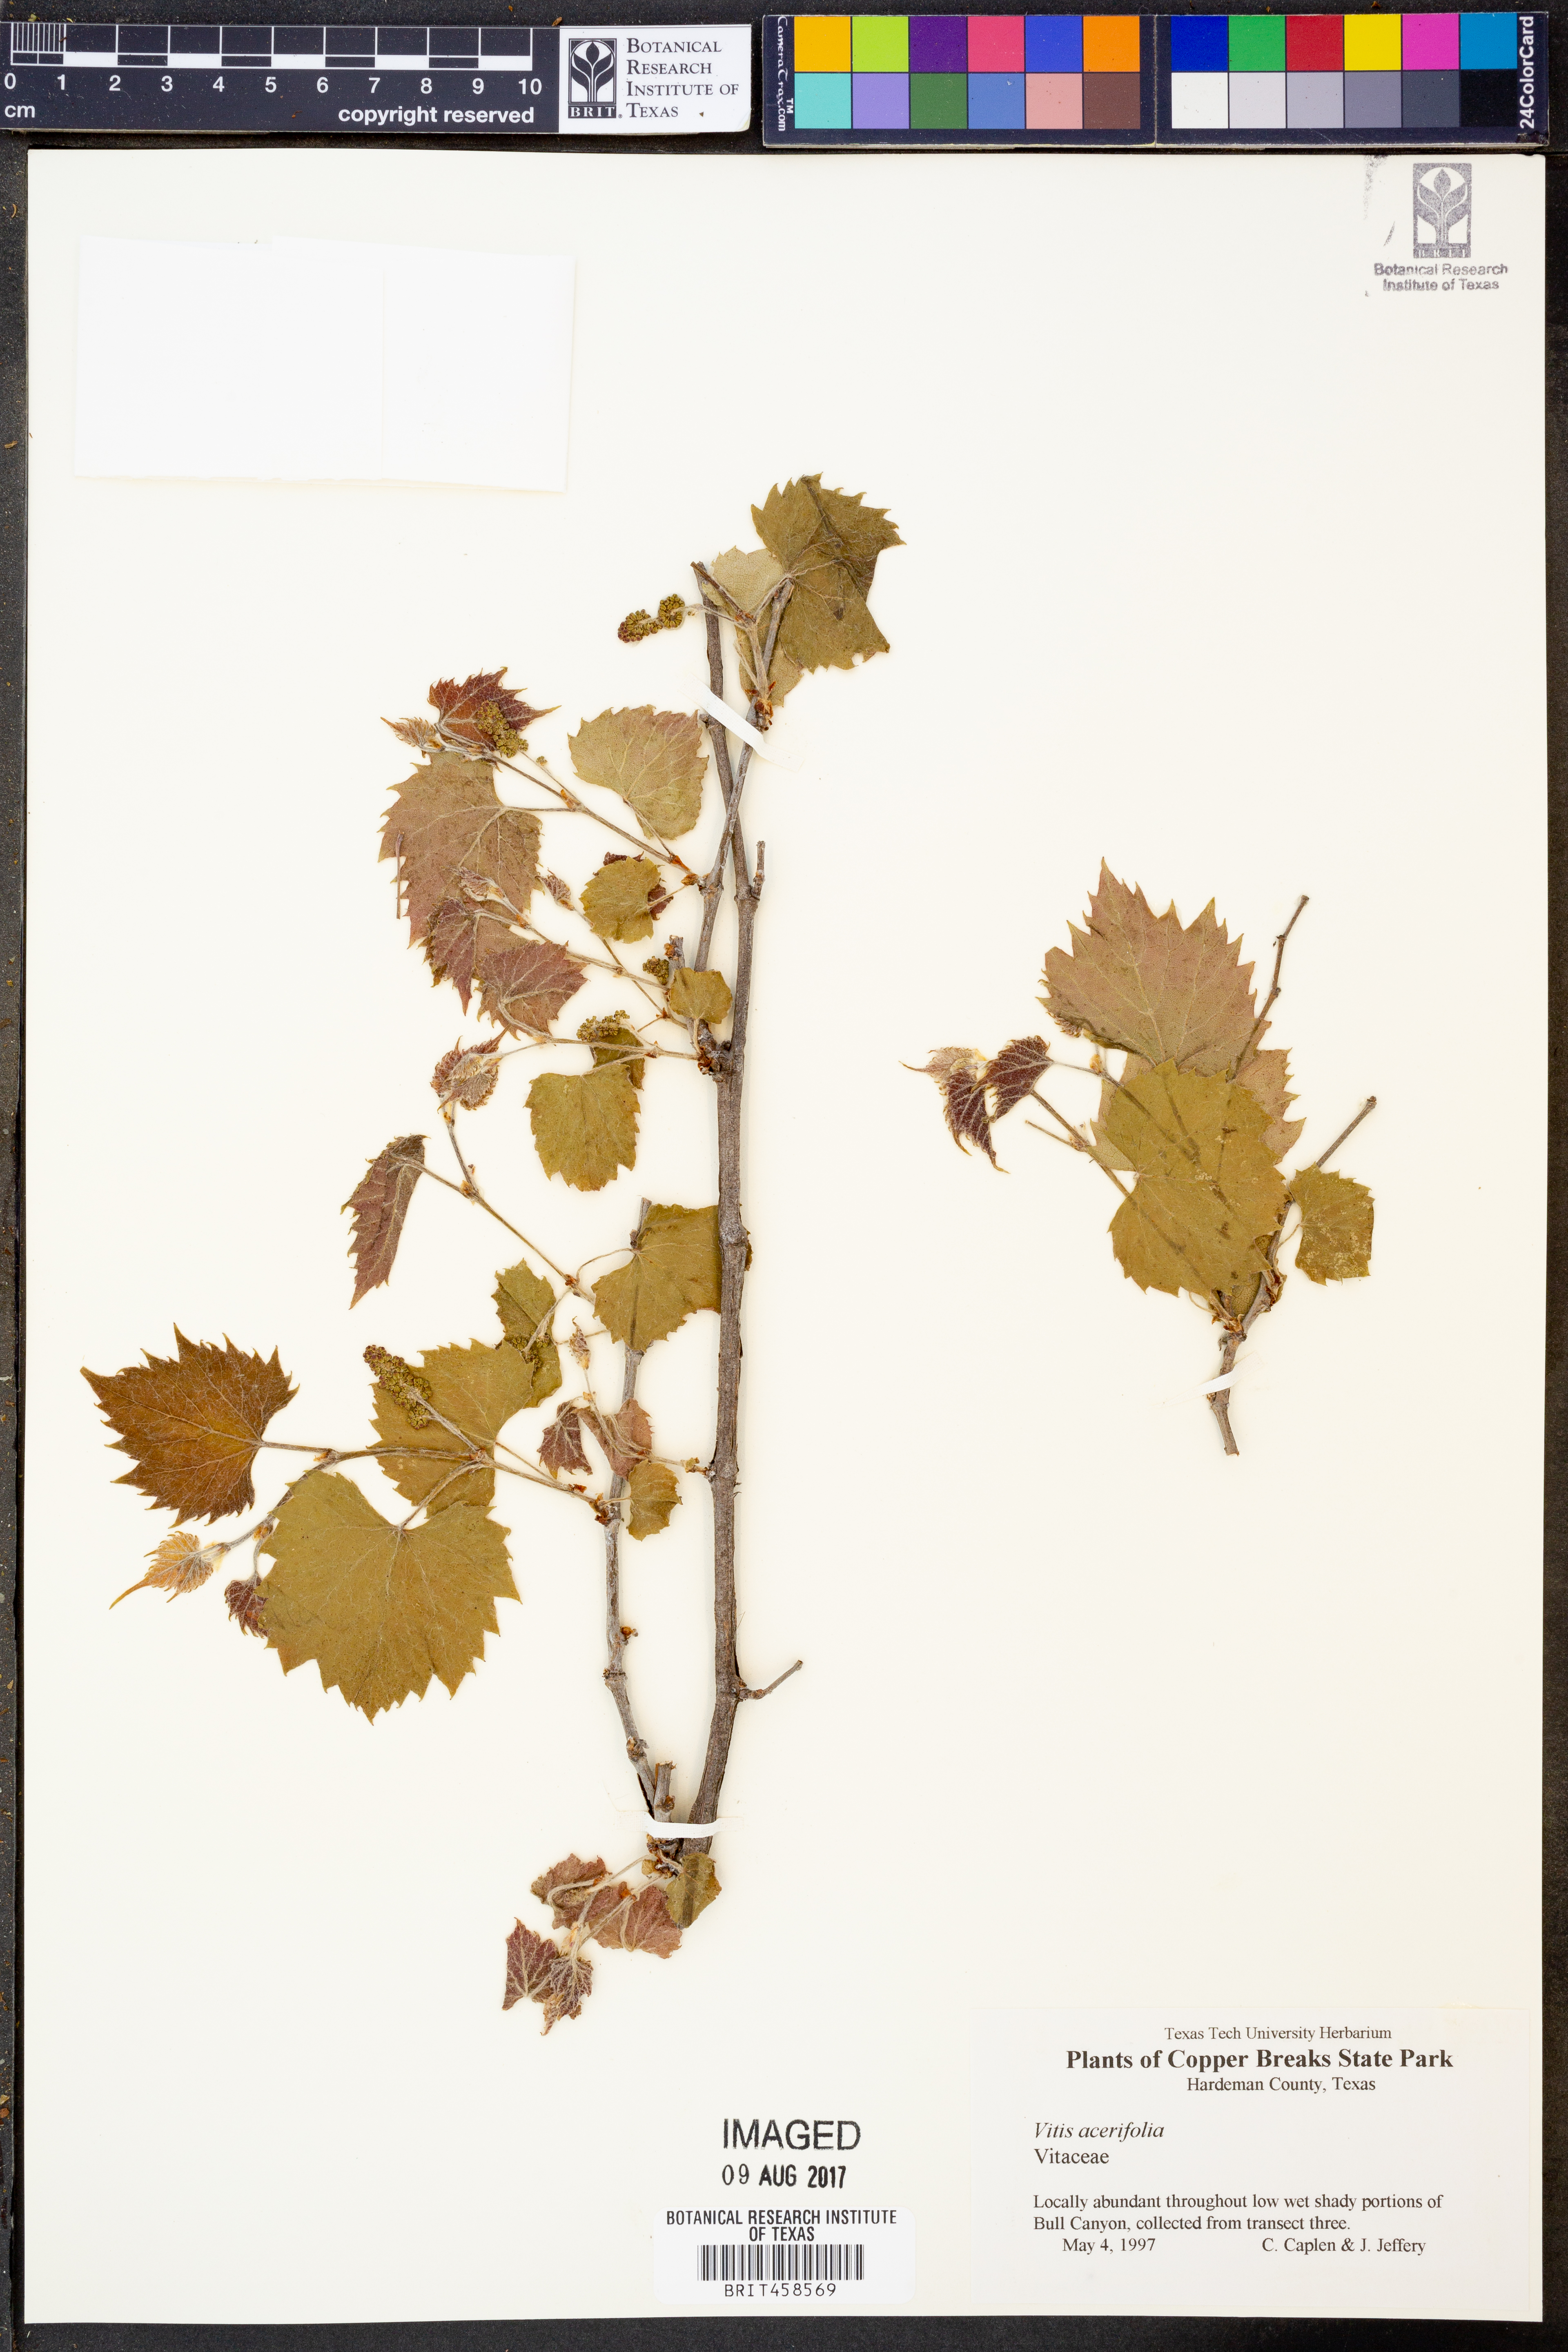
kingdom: Plantae
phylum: Tracheophyta
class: Magnoliopsida
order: Vitales
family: Vitaceae
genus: Vitis
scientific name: Vitis acerifolia
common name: Bush grape
